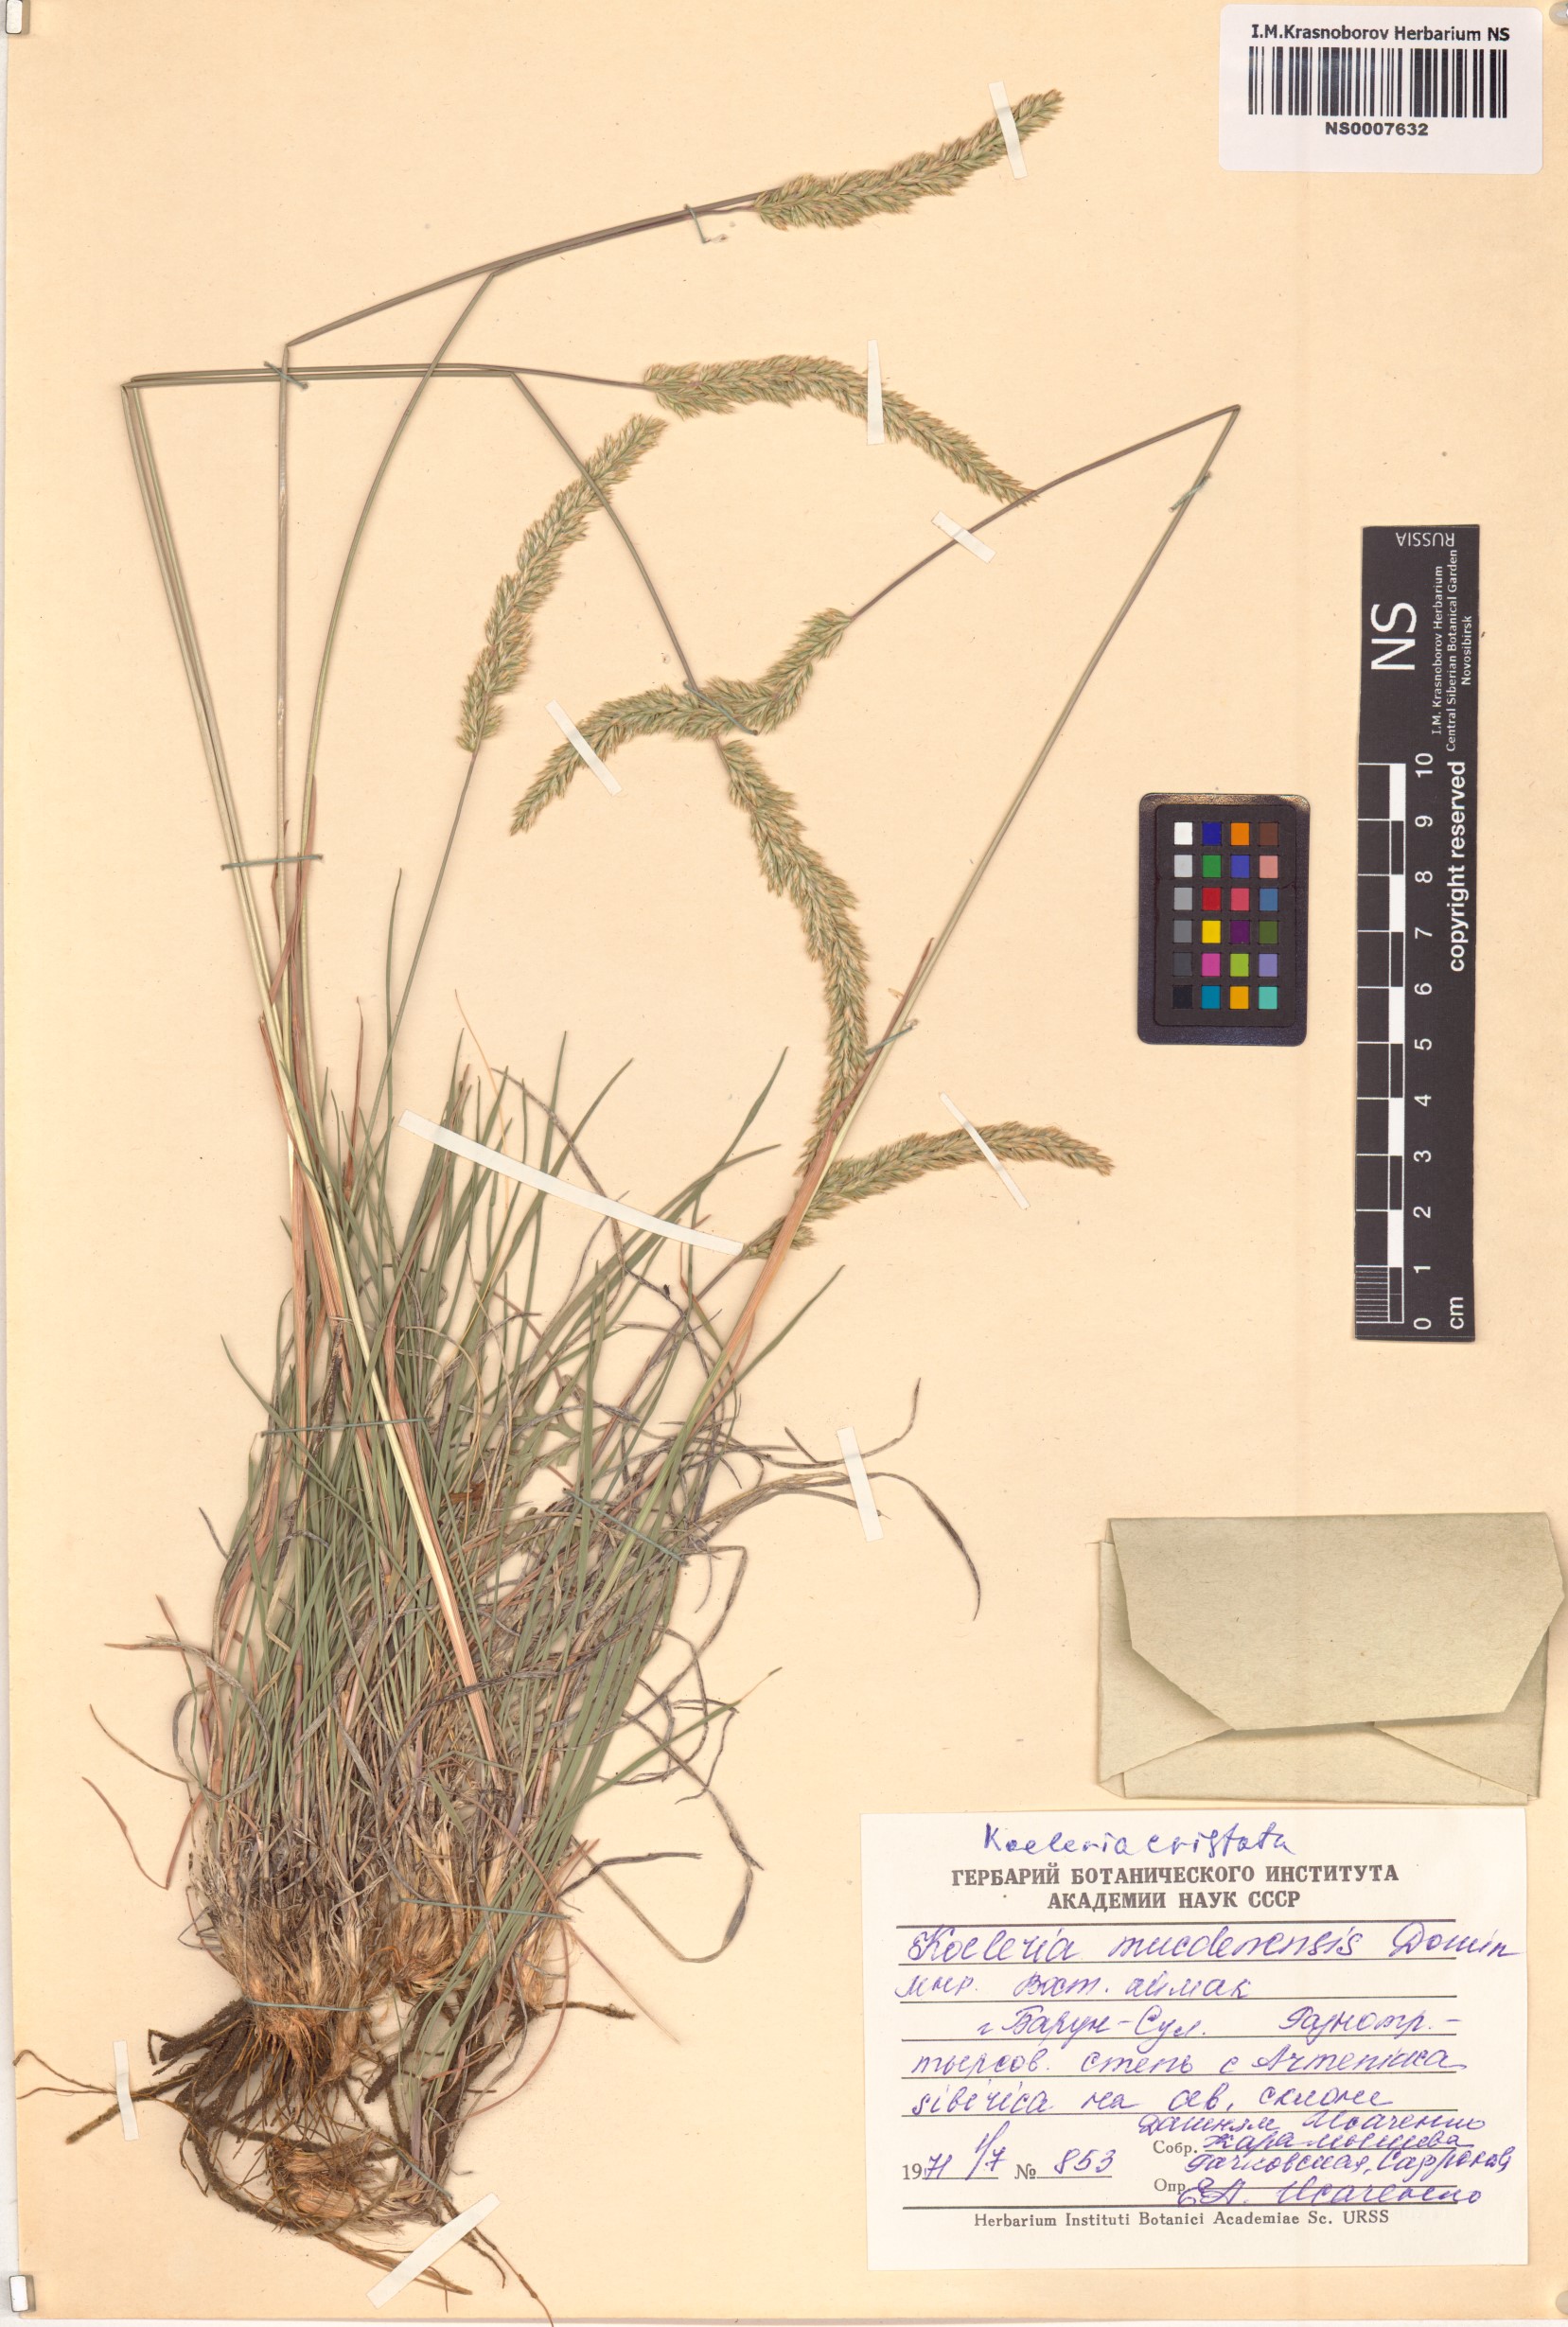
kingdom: Plantae
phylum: Tracheophyta
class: Liliopsida
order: Poales
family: Poaceae
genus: Rostraria
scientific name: Rostraria cristata
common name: Mediterranean hair-grass
